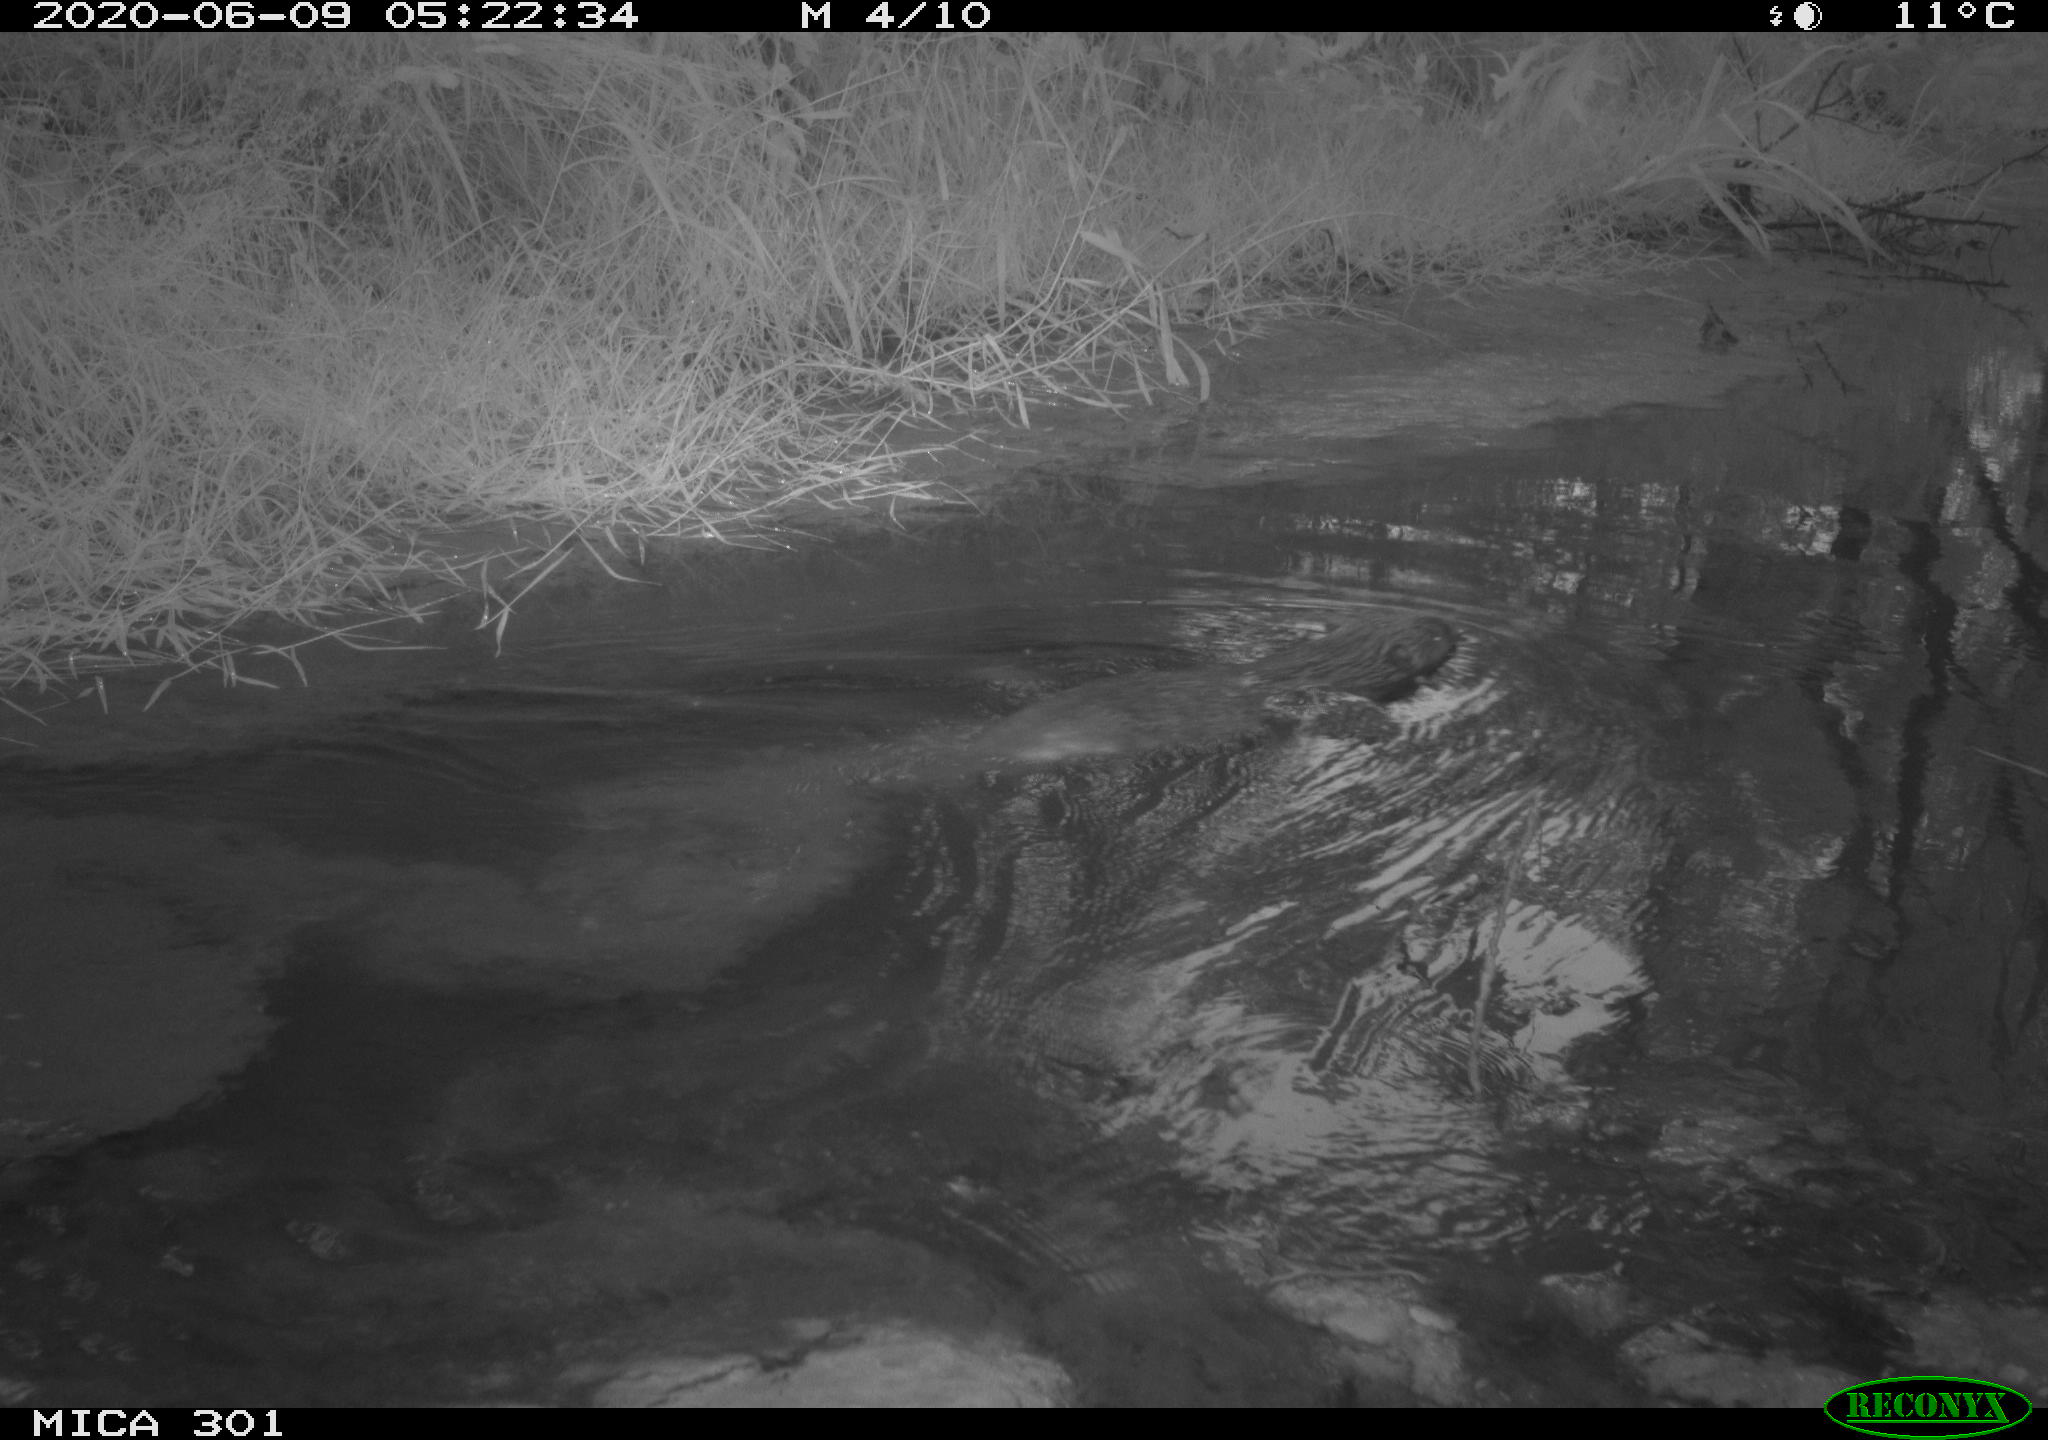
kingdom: Animalia
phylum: Chordata
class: Mammalia
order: Rodentia
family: Castoridae
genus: Castor
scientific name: Castor fiber
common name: Eurasian beaver
